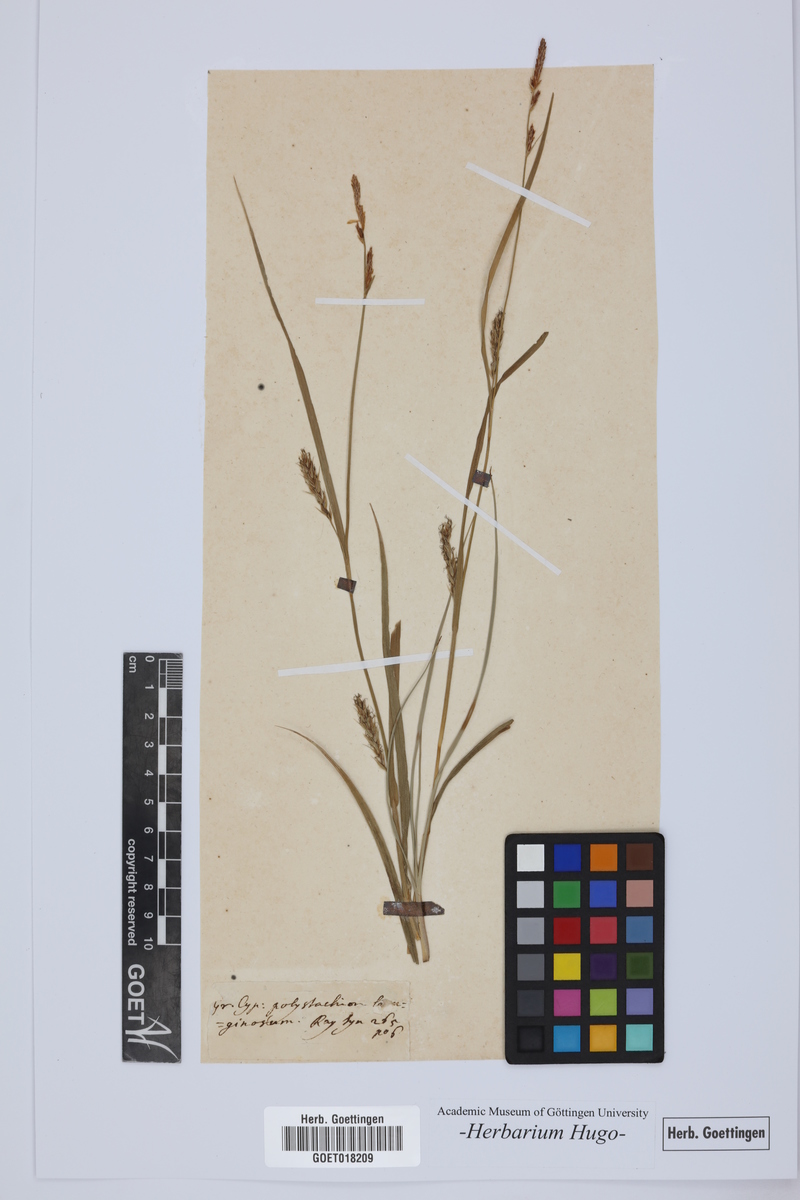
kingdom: Plantae
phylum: Tracheophyta
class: Liliopsida
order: Poales
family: Poaceae
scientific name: Poaceae
